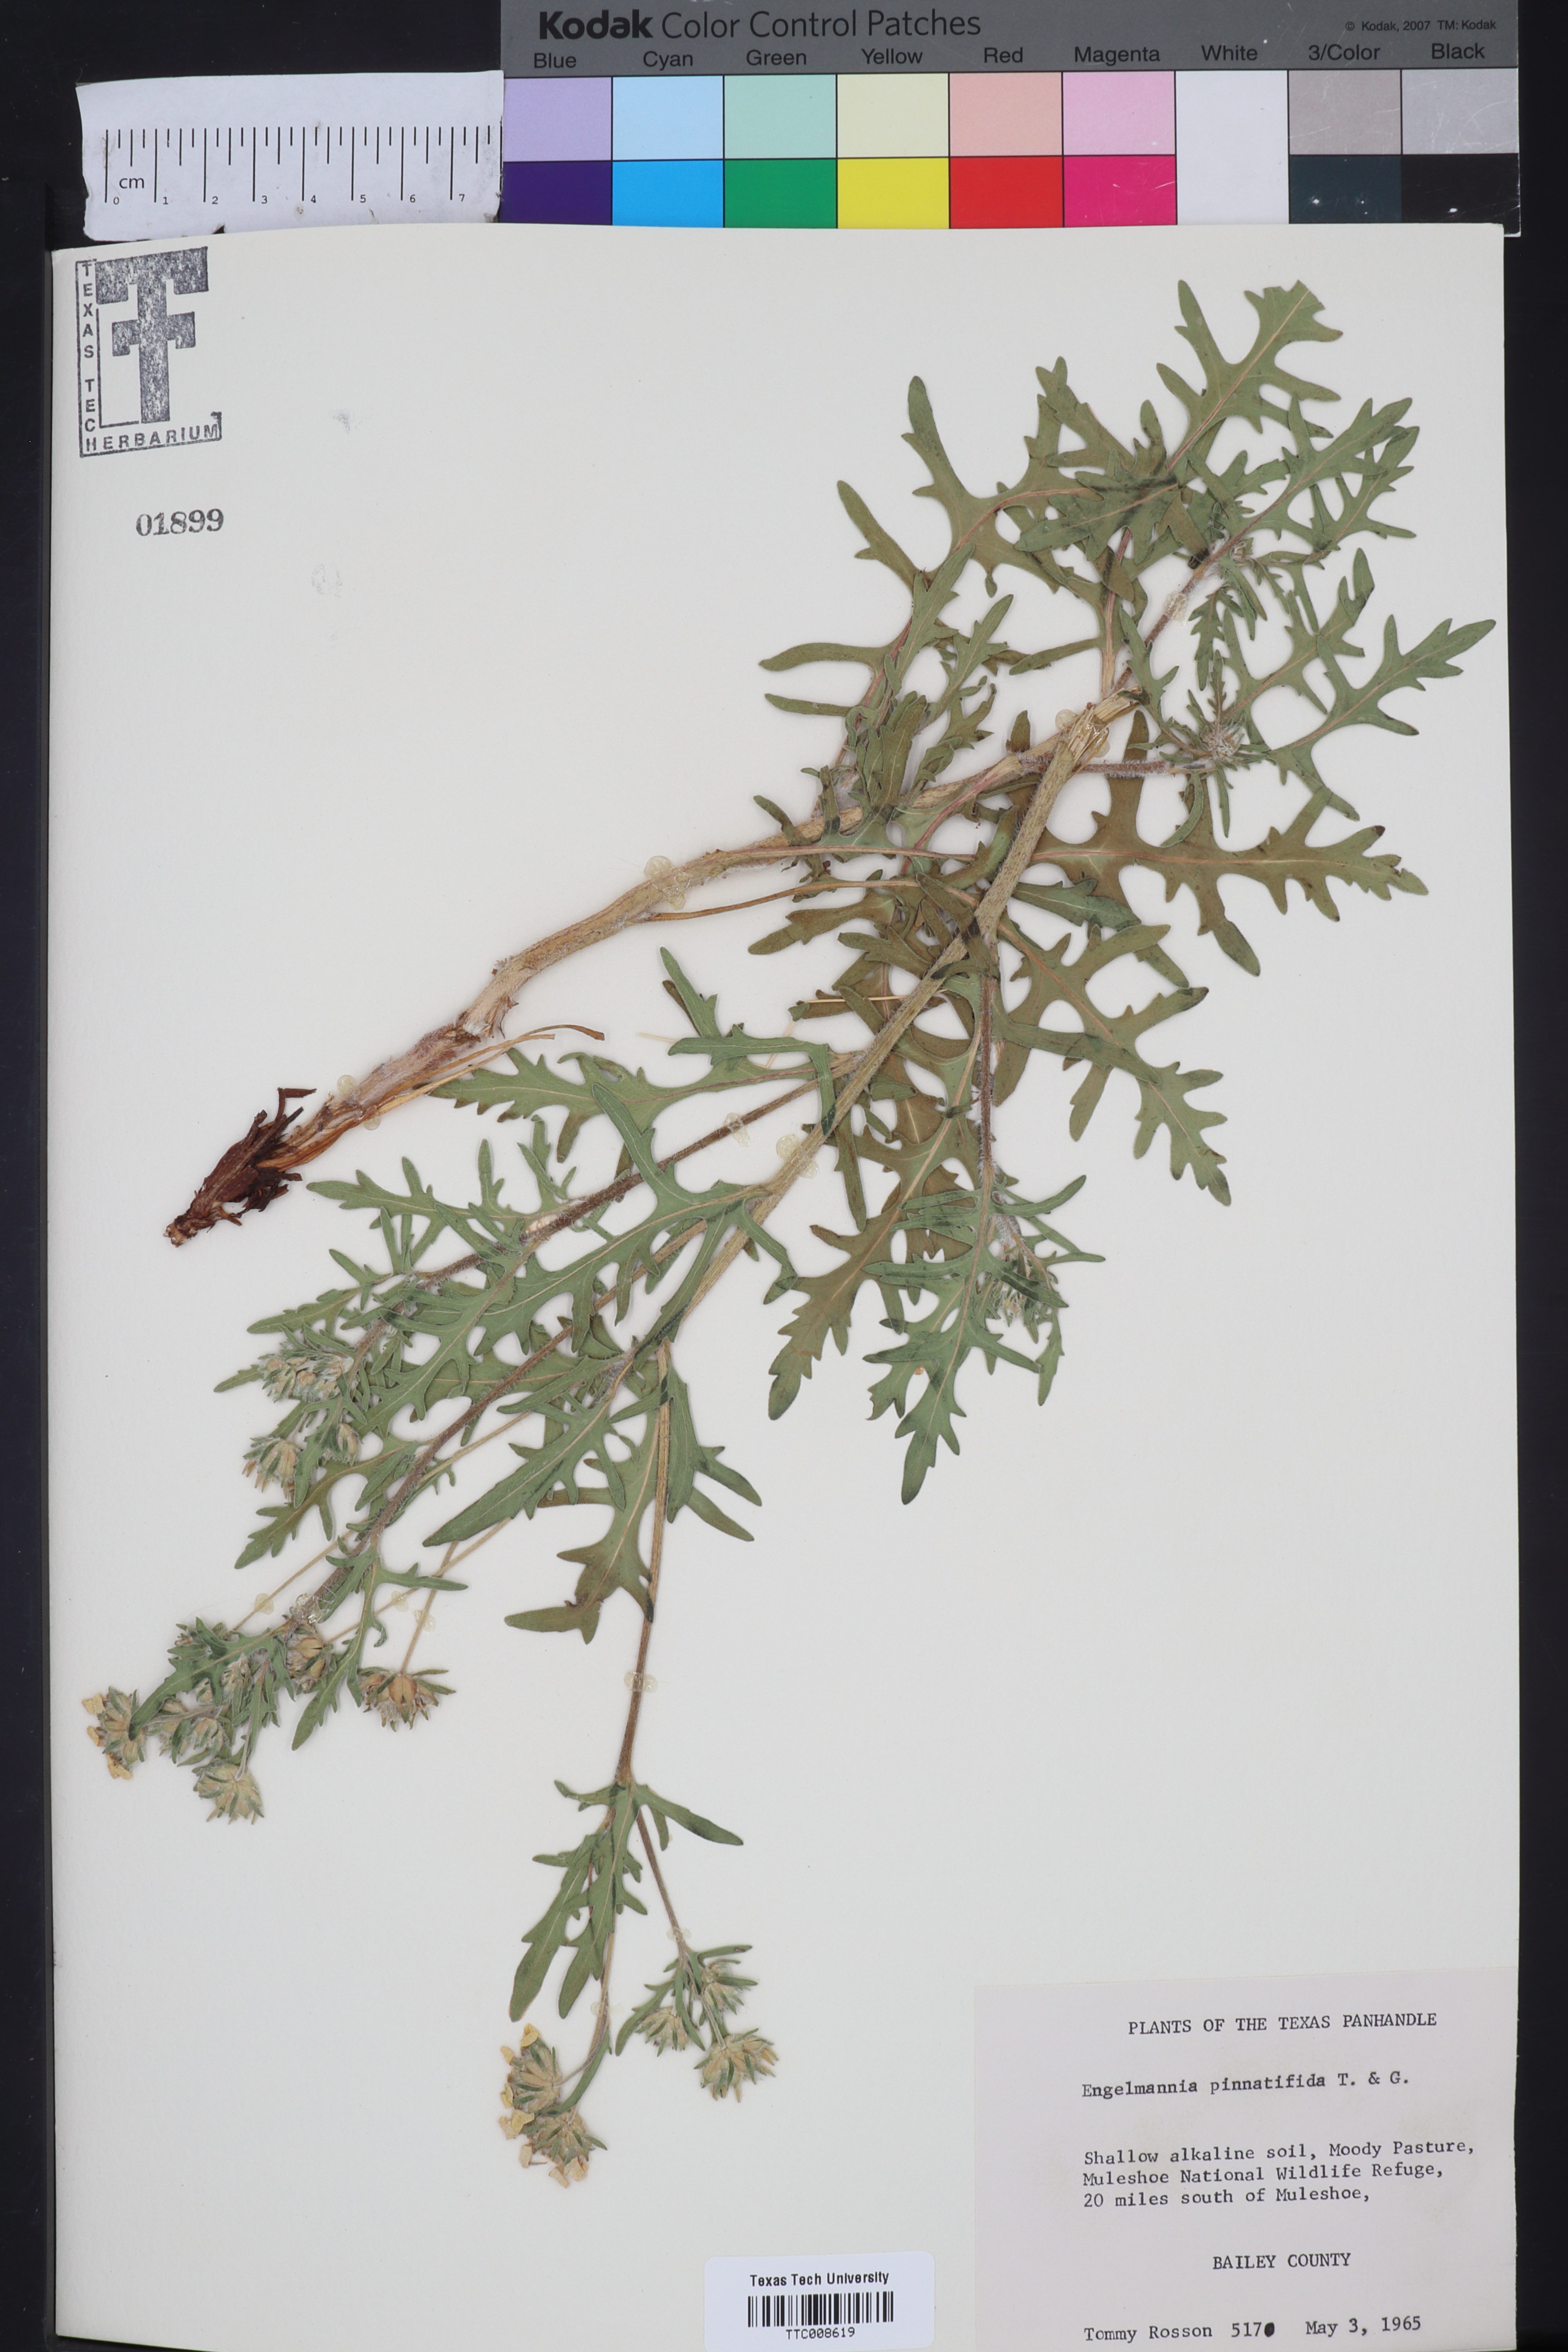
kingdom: Plantae
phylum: Tracheophyta
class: Magnoliopsida
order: Asterales
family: Asteraceae
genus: Engelmannia
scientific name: Engelmannia peristenia
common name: Engelmann's daisy
